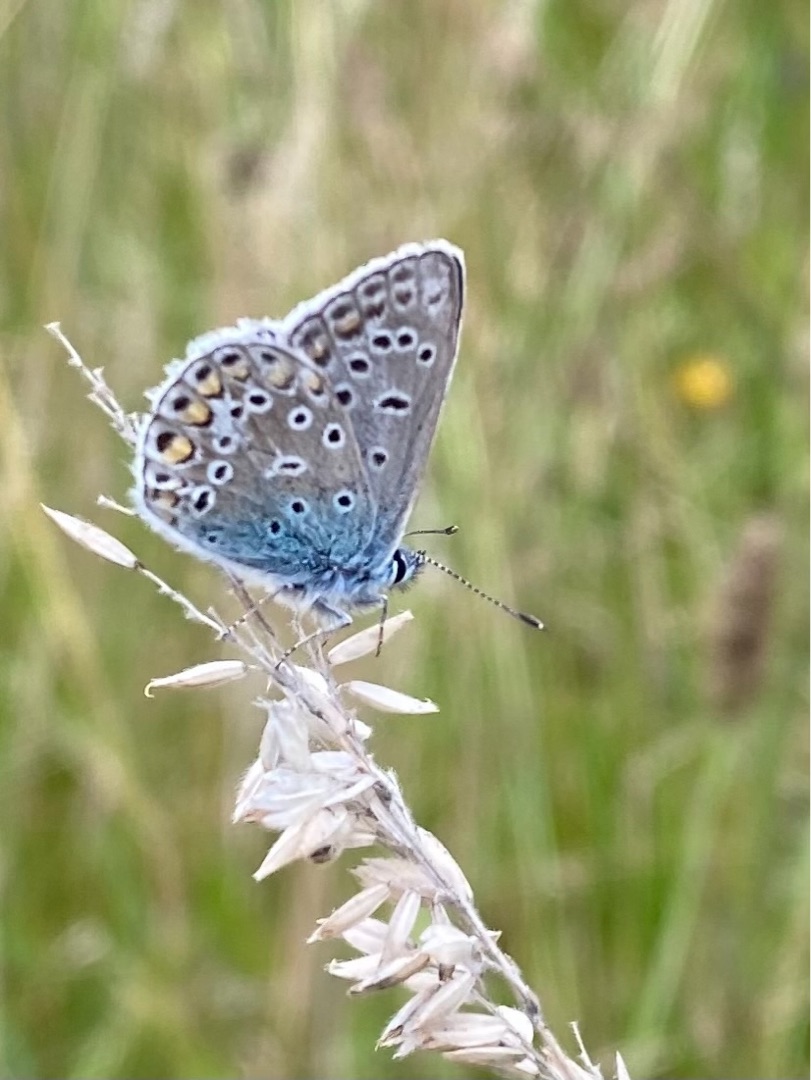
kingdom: Animalia
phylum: Arthropoda
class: Insecta
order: Lepidoptera
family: Lycaenidae
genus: Polyommatus
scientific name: Polyommatus icarus
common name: Almindelig blåfugl
